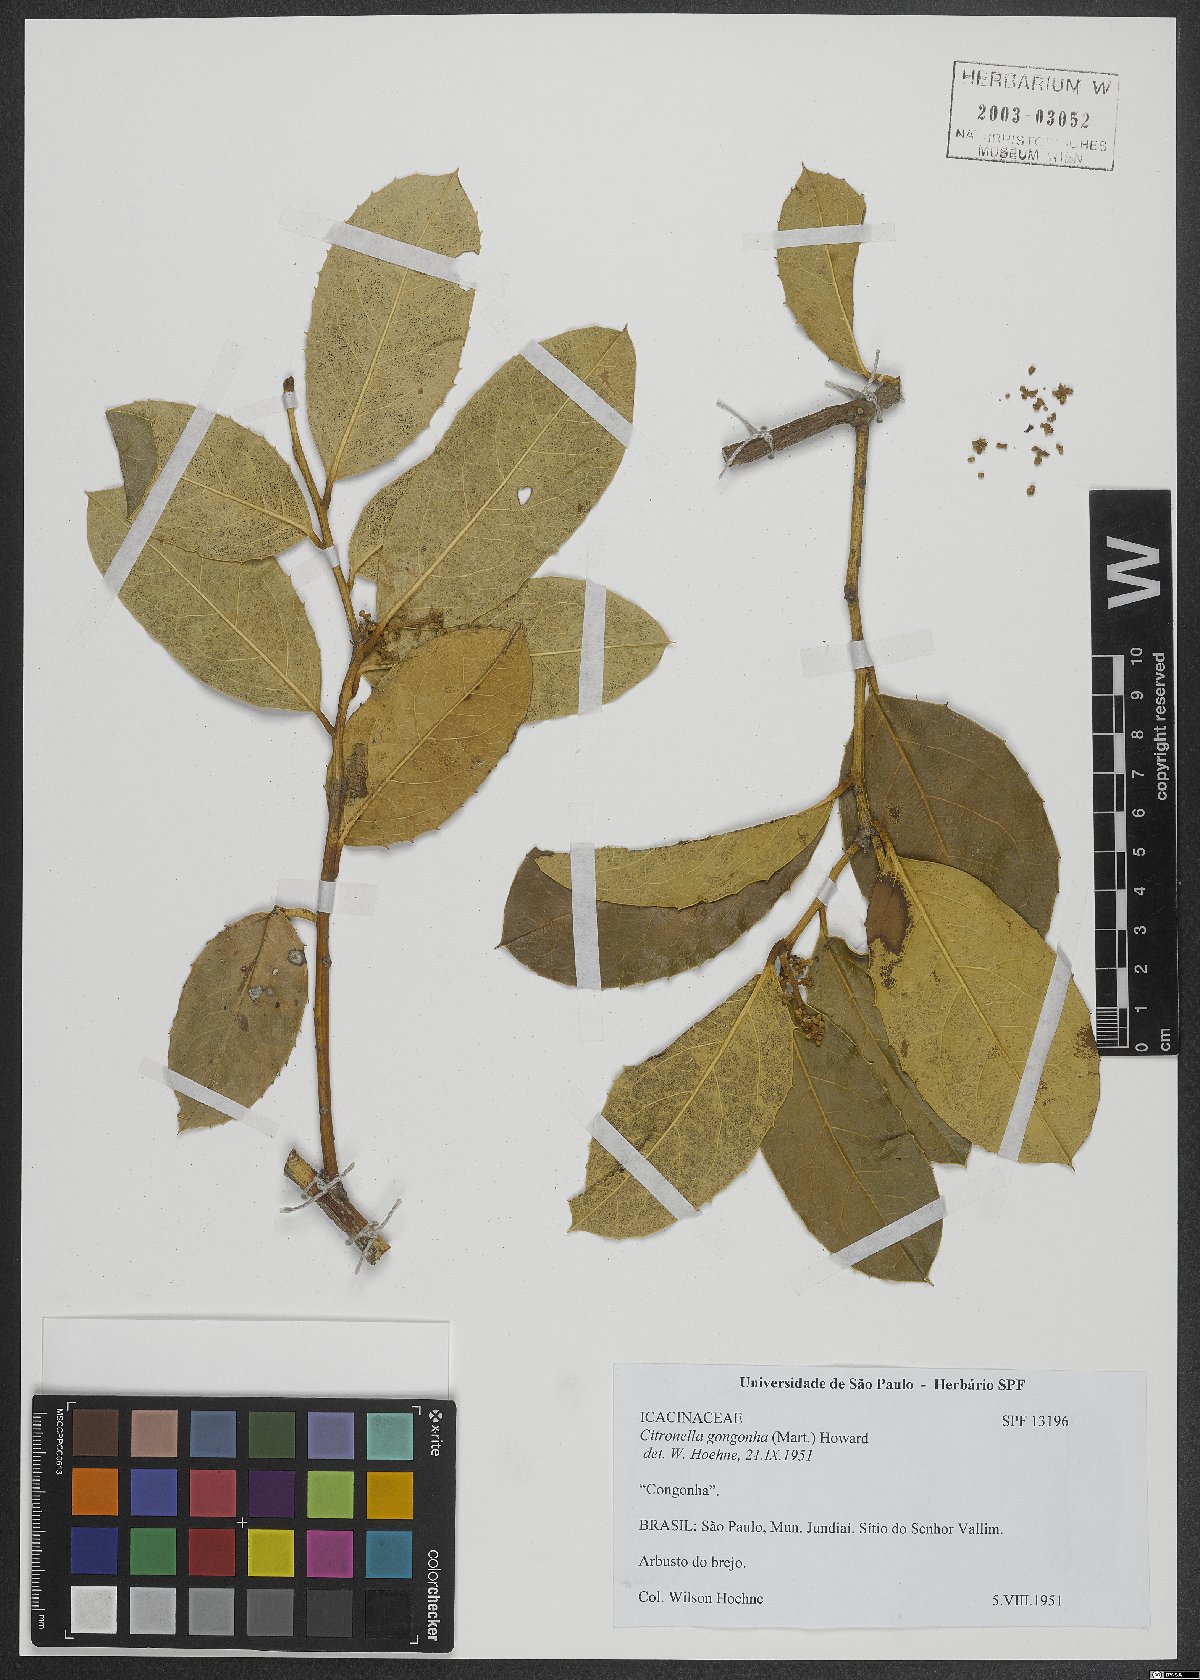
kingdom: Plantae
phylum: Tracheophyta
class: Magnoliopsida
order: Cardiopteridales
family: Cardiopteridaceae
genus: Citronella
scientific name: Citronella gongonha
